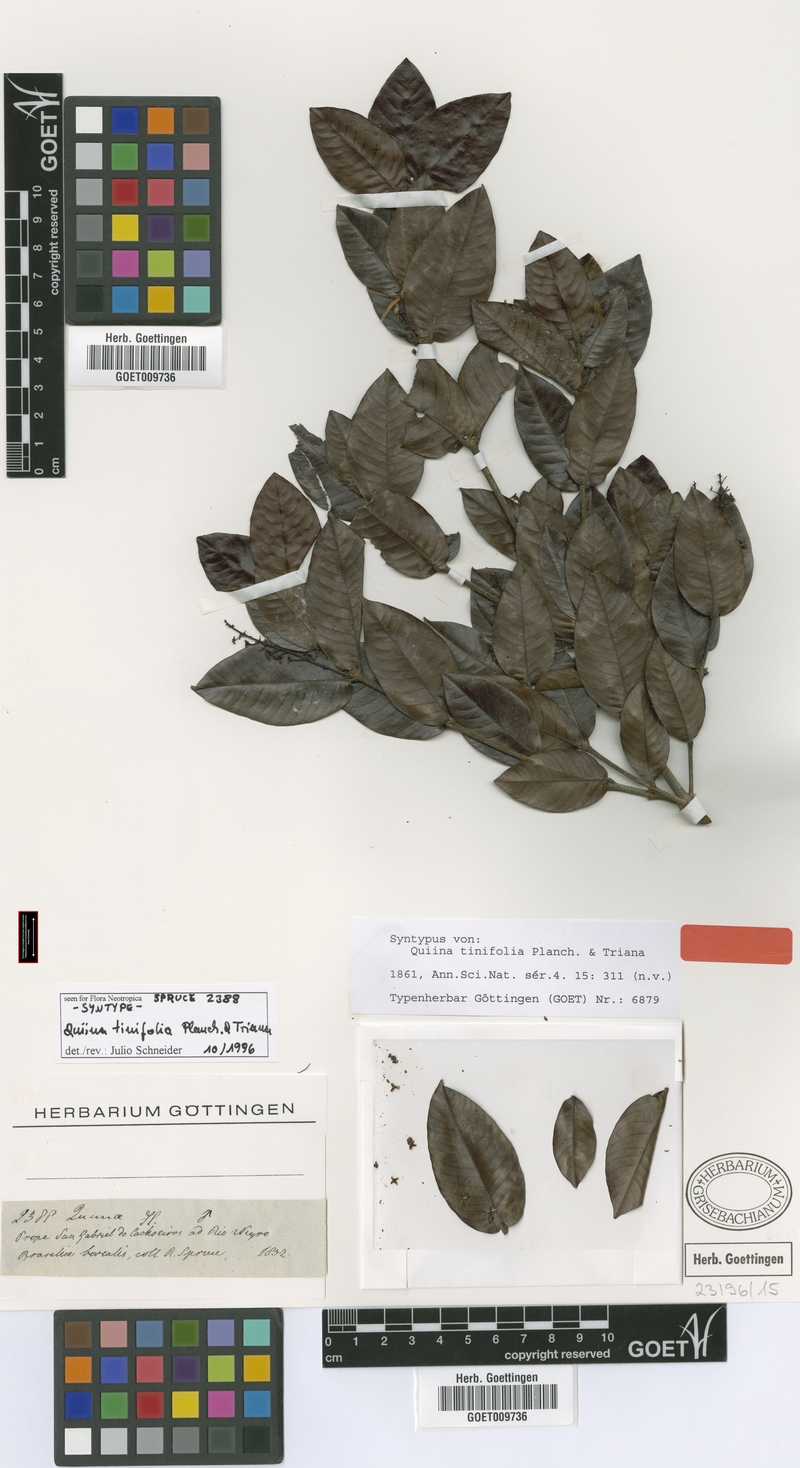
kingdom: Plantae
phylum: Tracheophyta
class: Magnoliopsida
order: Malpighiales
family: Quiinaceae
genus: Quiina
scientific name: Quiina tinifolia
